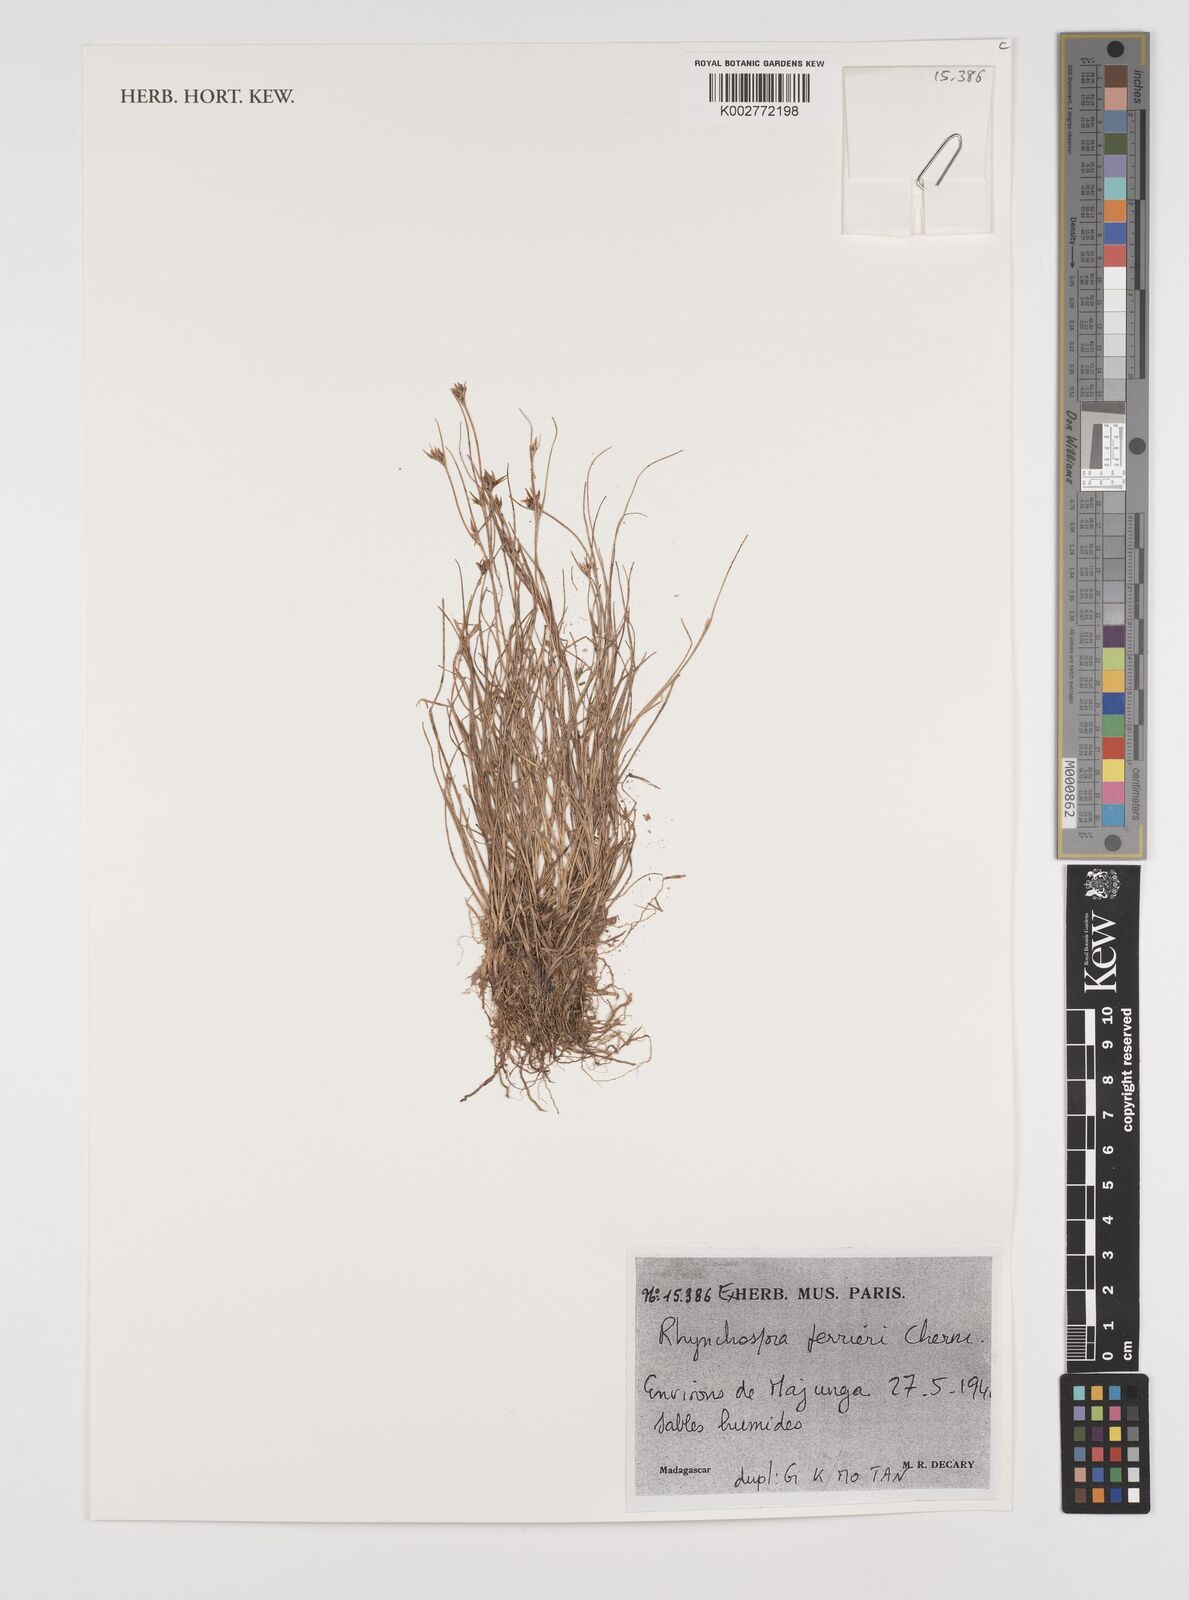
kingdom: Plantae
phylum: Tracheophyta
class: Liliopsida
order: Poales
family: Cyperaceae
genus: Rhynchospora
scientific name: Rhynchospora perrieri
